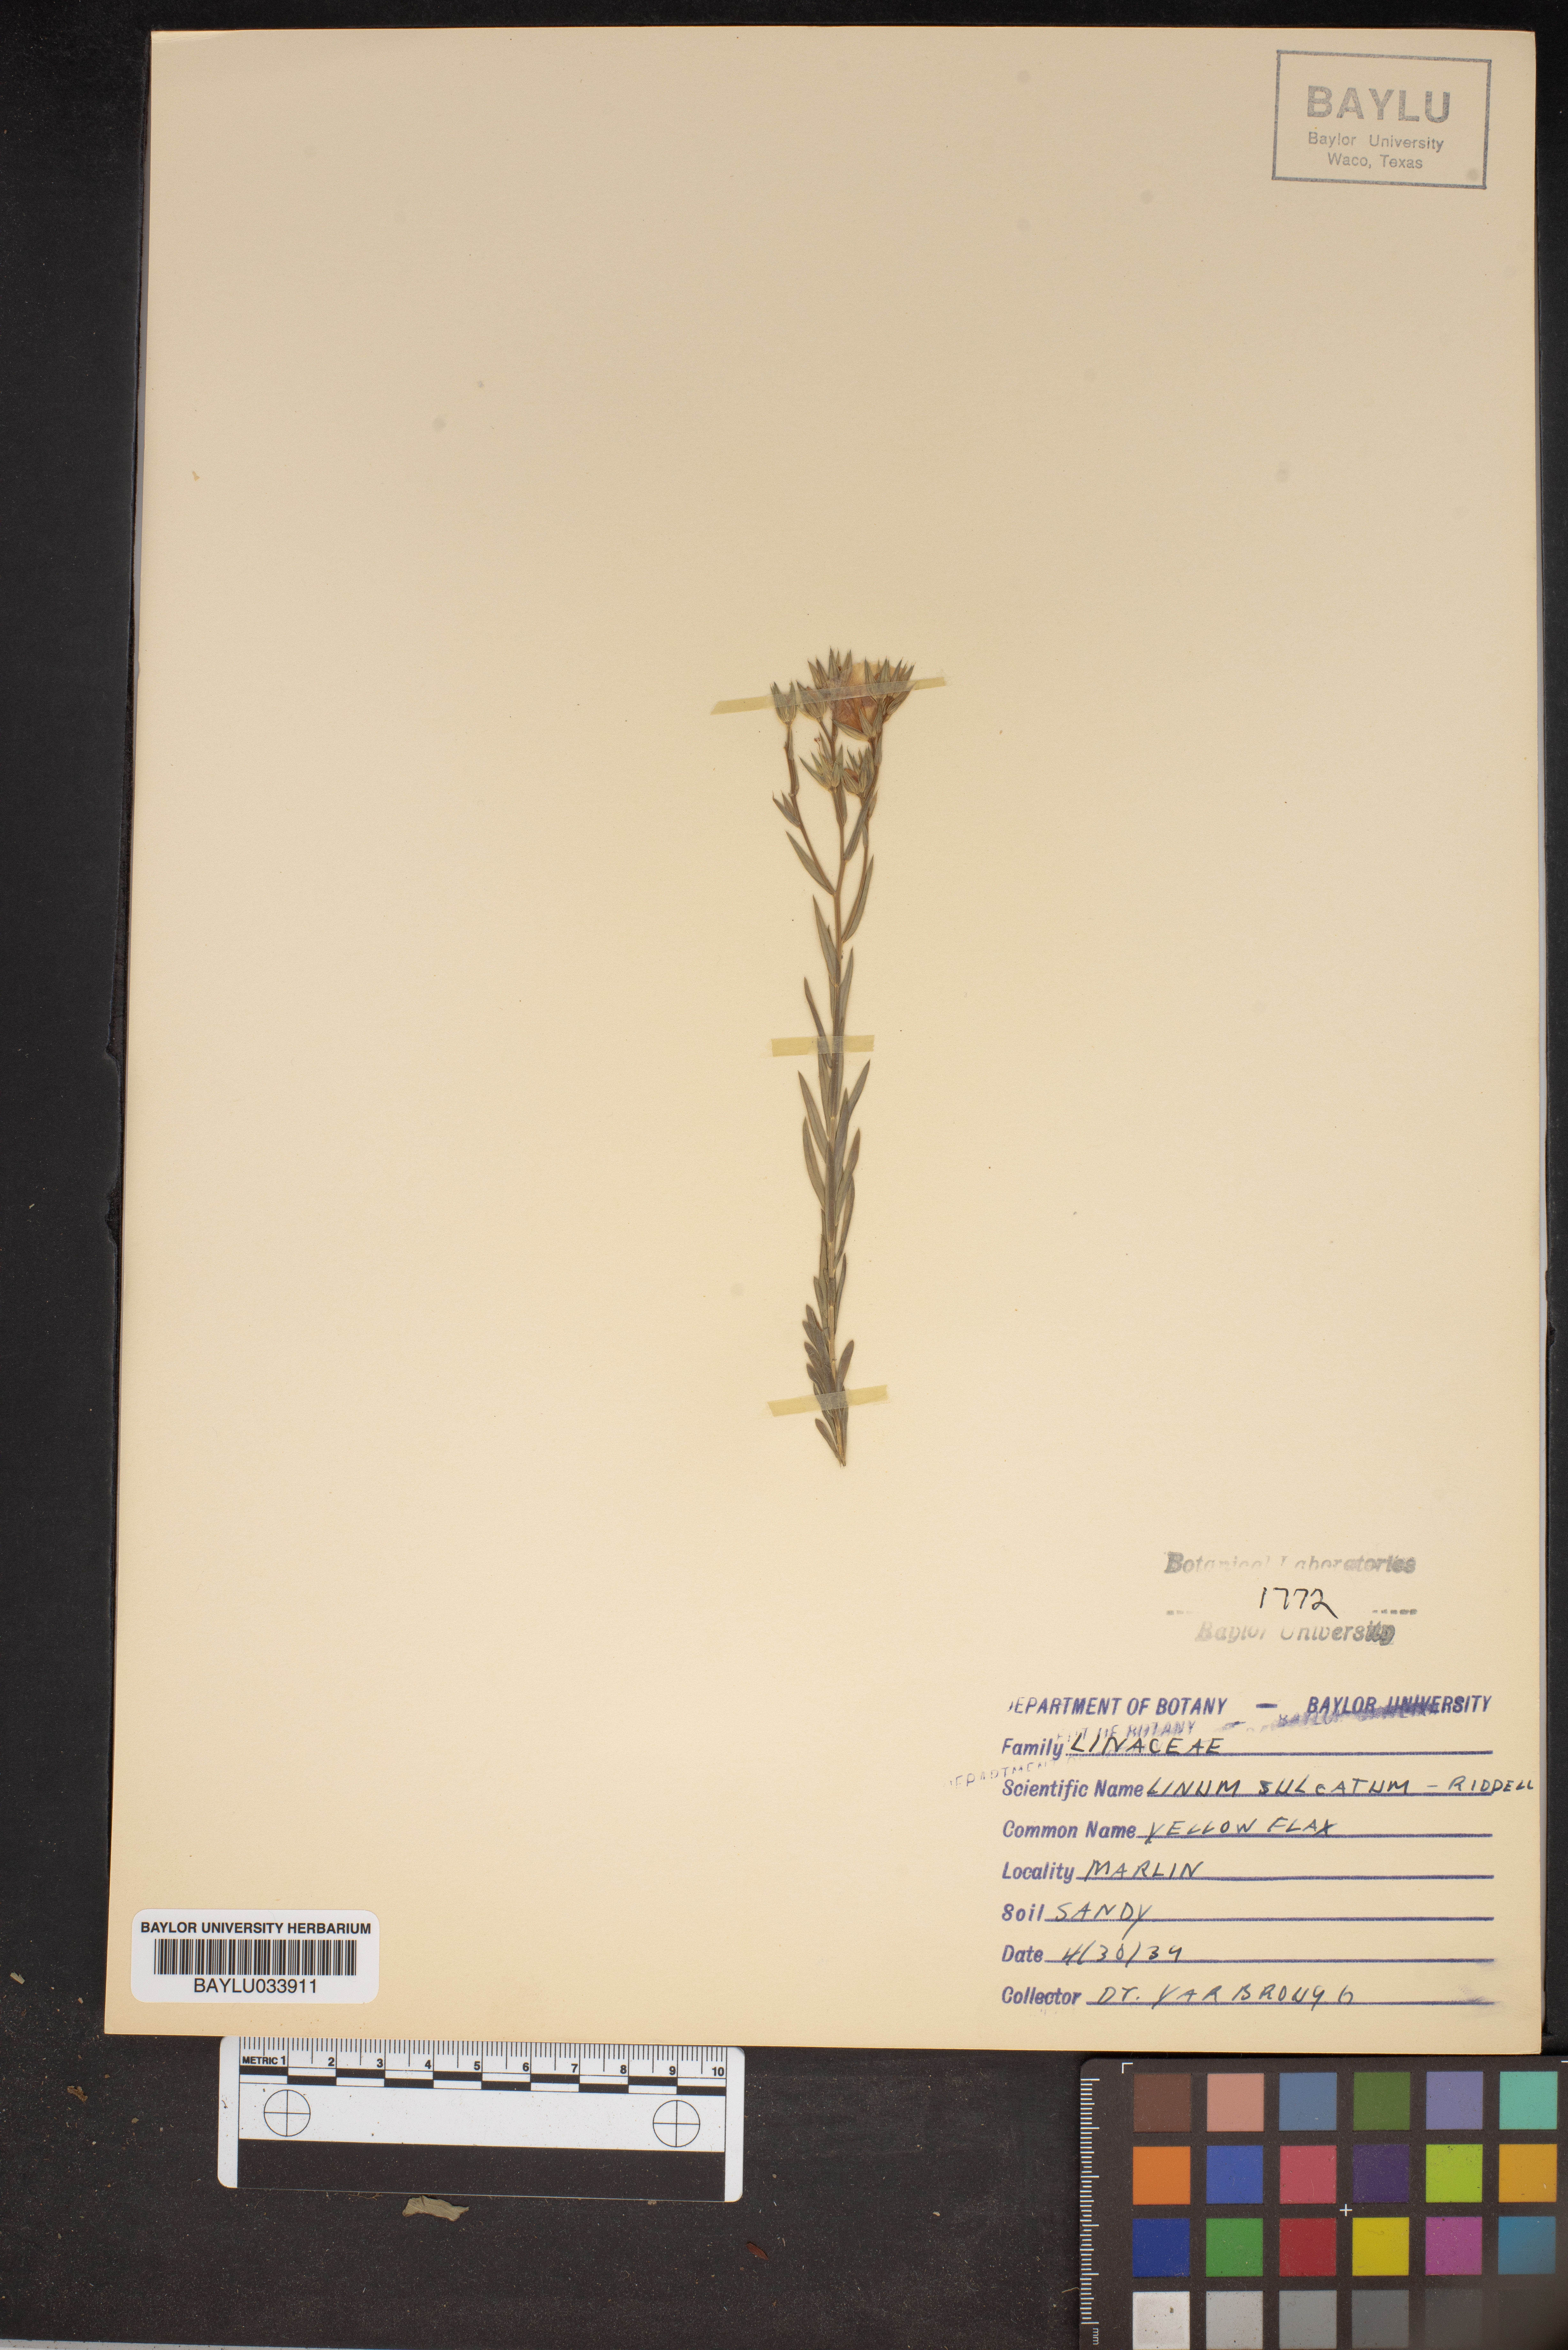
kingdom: Plantae
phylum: Tracheophyta
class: Magnoliopsida
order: Malpighiales
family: Linaceae
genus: Linum
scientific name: Linum sulcatum
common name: Grooved flax
